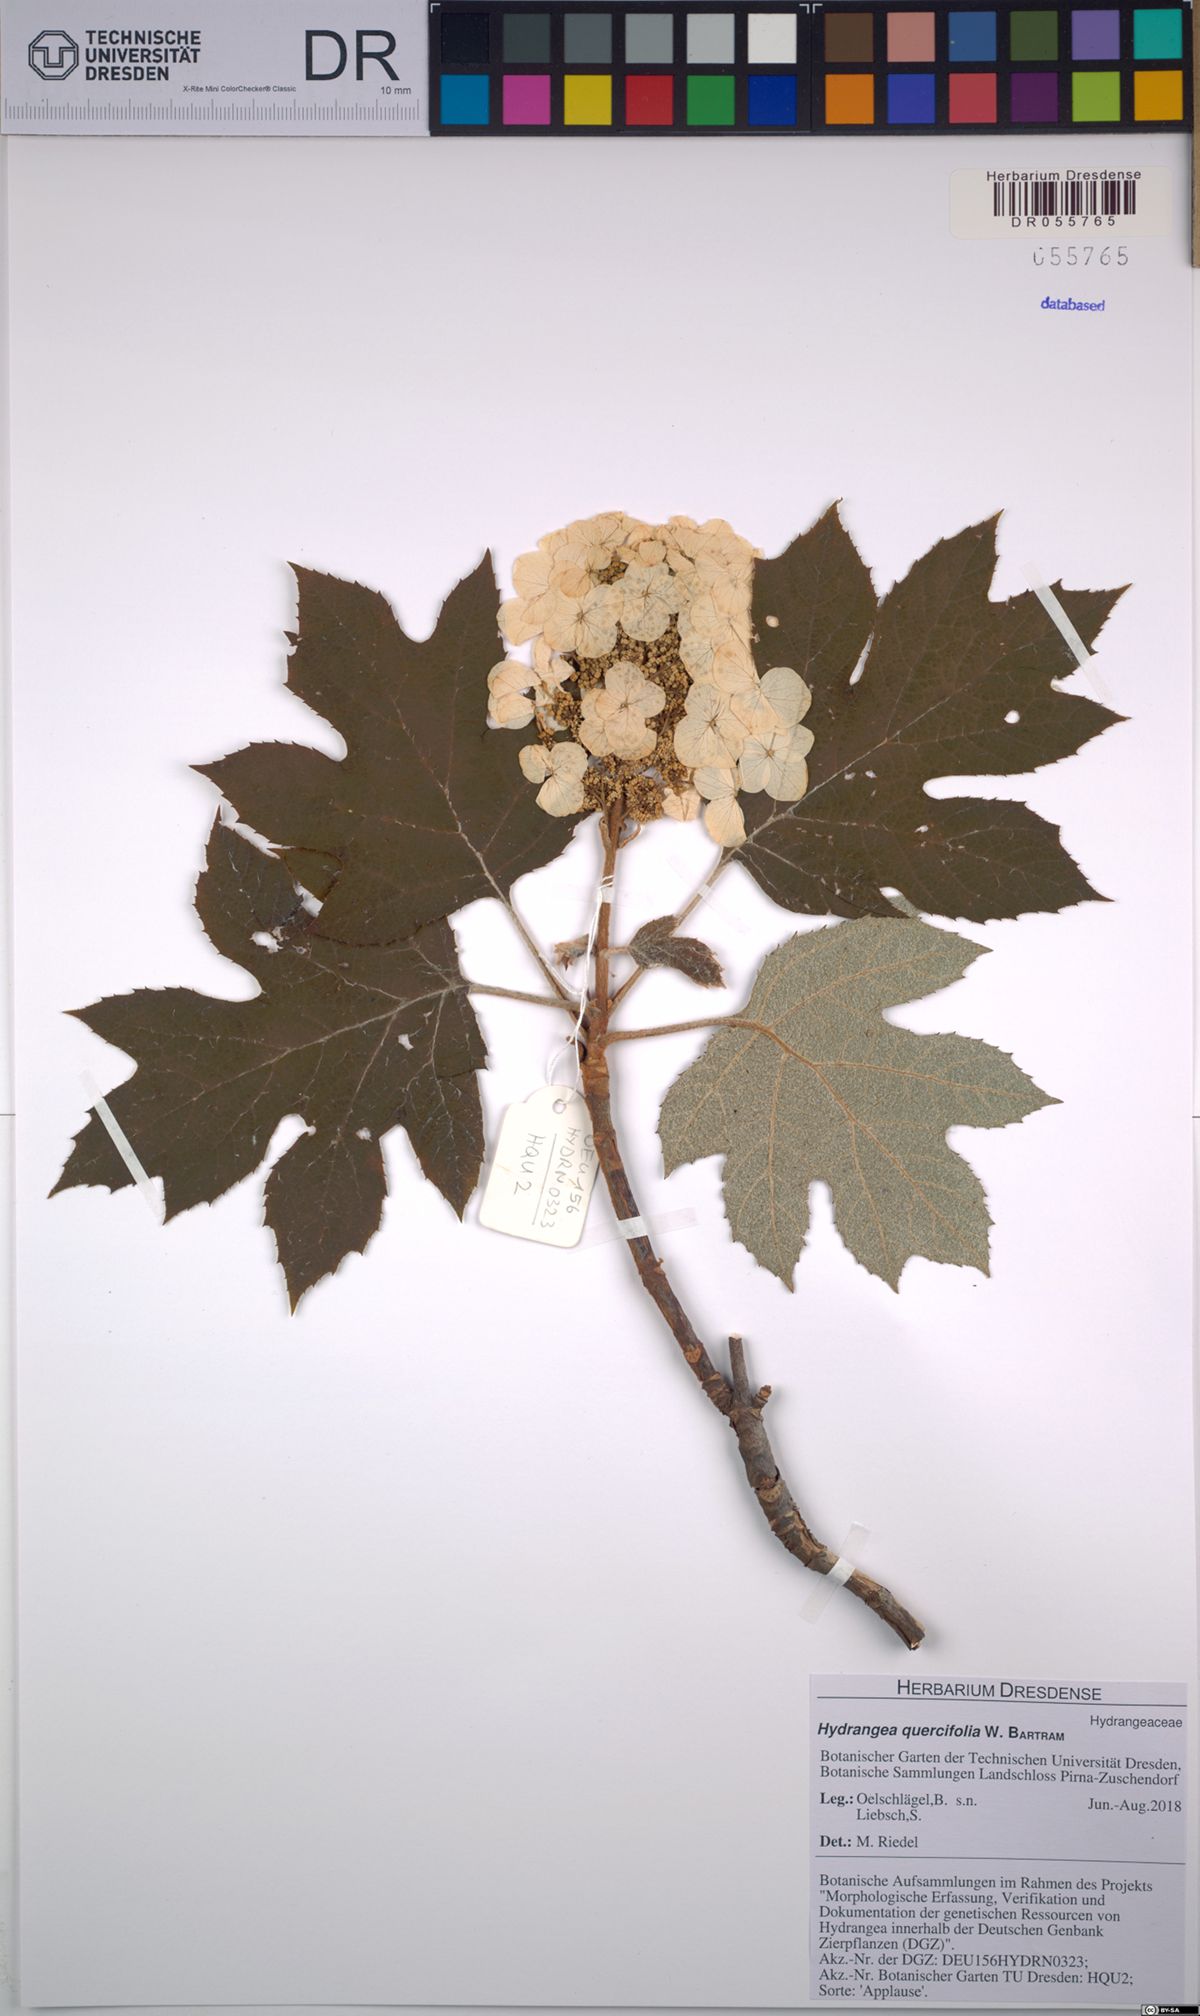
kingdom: Plantae
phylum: Tracheophyta
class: Magnoliopsida
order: Cornales
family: Hydrangeaceae
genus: Hydrangea
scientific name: Hydrangea quercifolia
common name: Oak-leaf hydrangea
